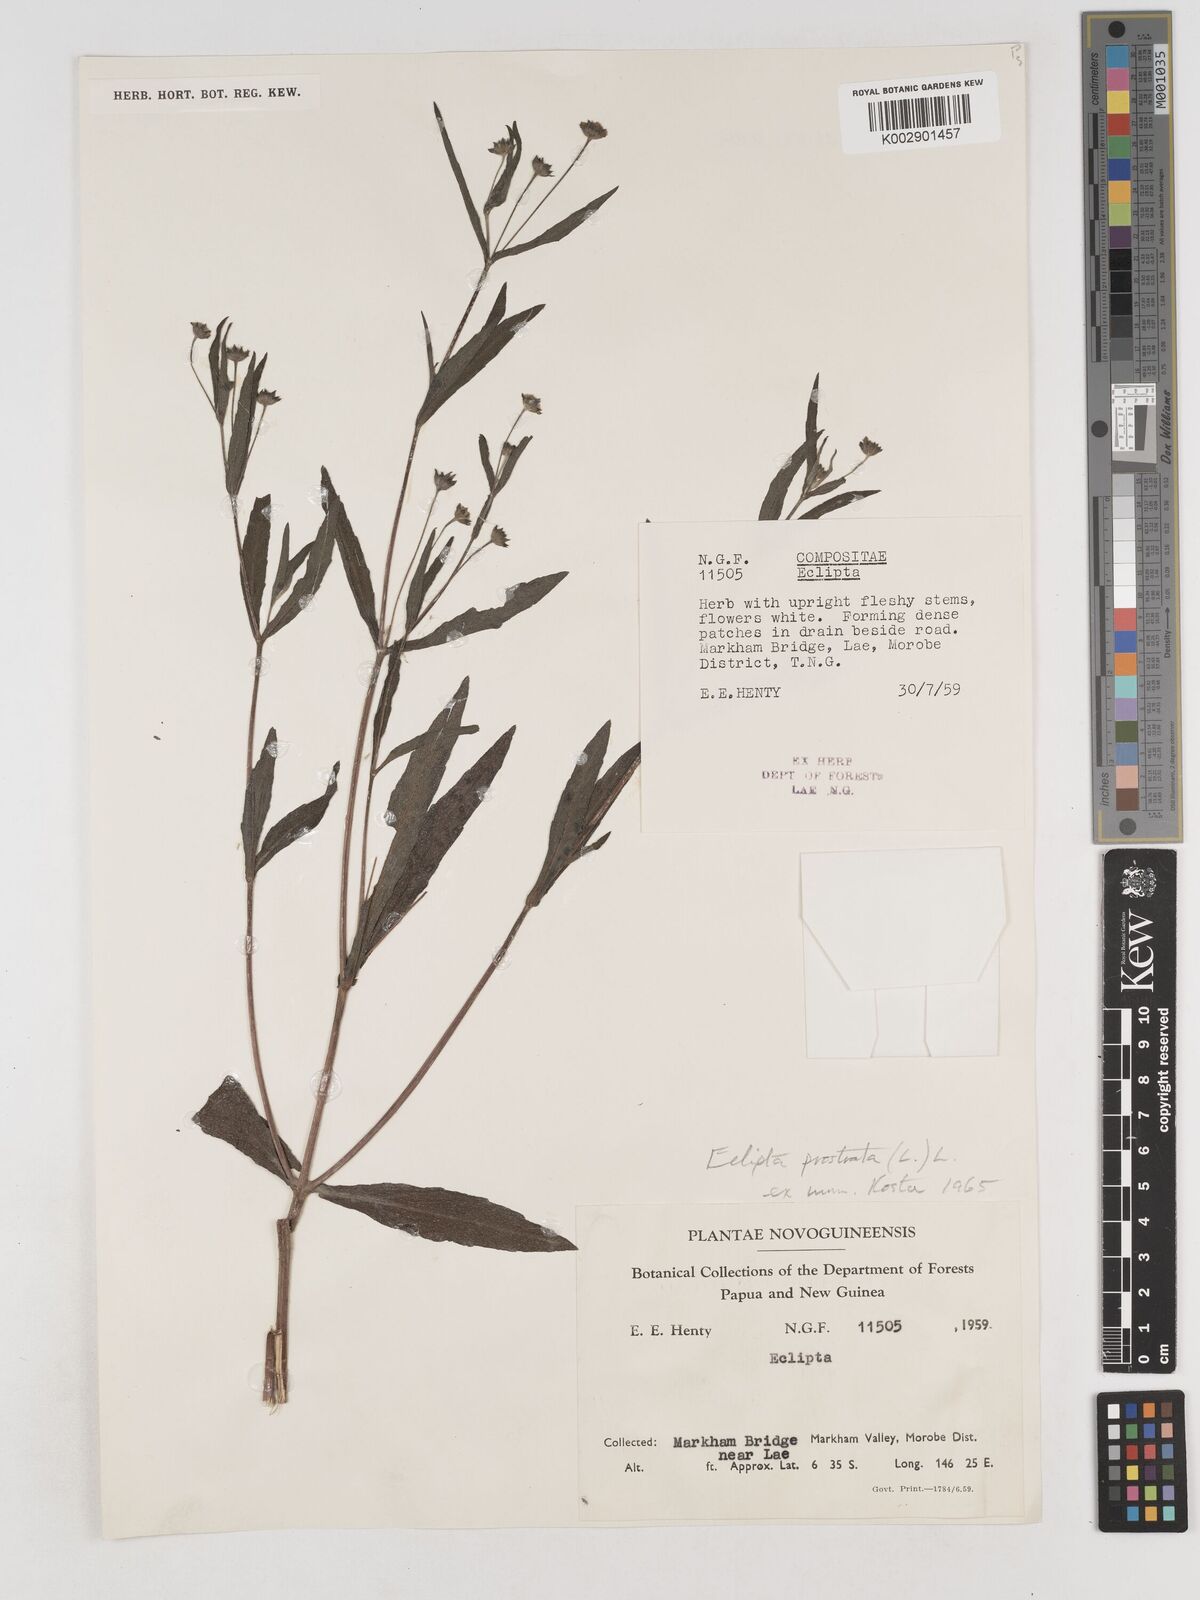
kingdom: Plantae
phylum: Tracheophyta
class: Magnoliopsida
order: Asterales
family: Asteraceae
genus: Eclipta
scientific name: Eclipta
